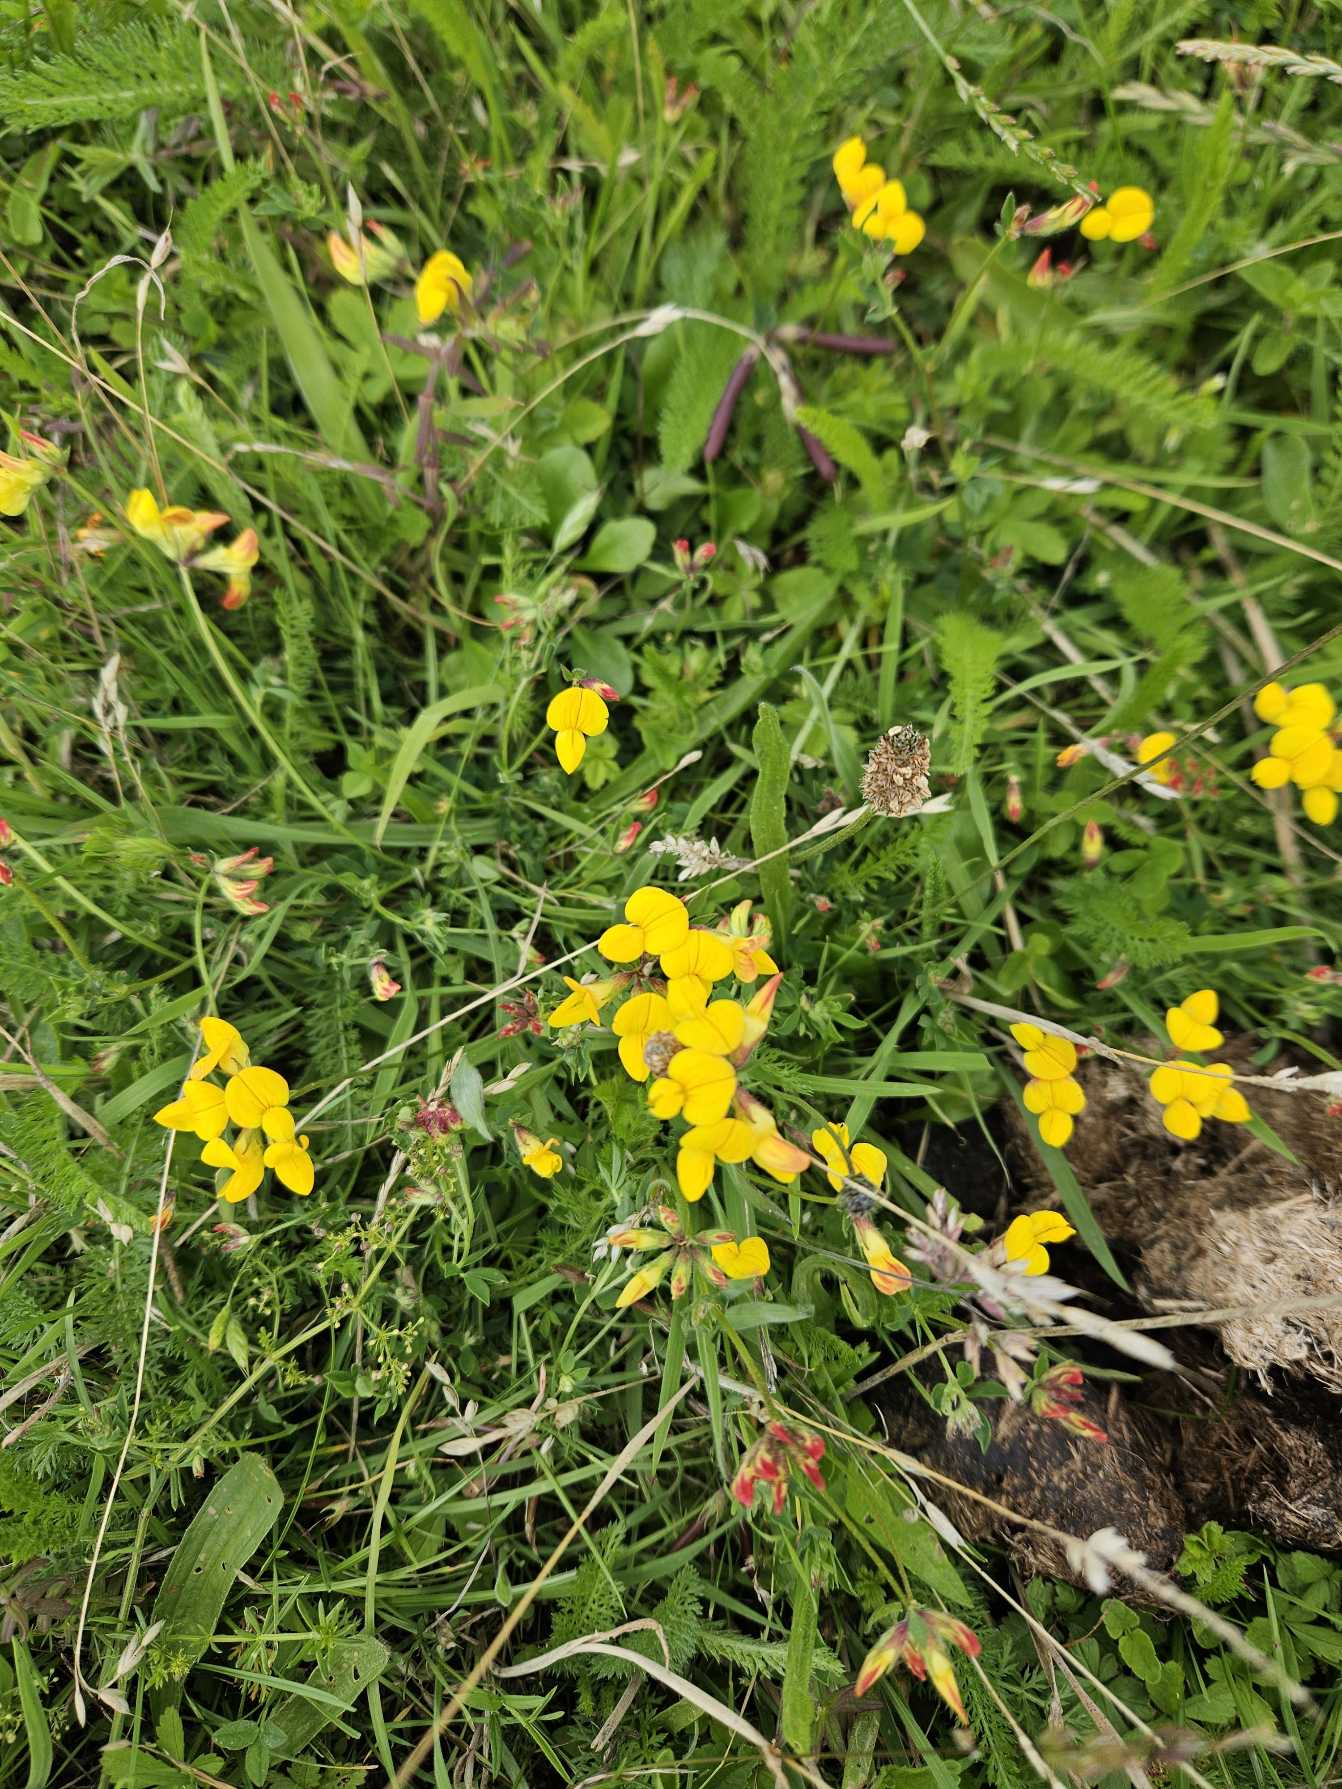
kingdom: Plantae
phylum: Tracheophyta
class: Magnoliopsida
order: Fabales
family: Fabaceae
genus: Lotus
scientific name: Lotus corniculatus
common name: Almindelig kællingetand
